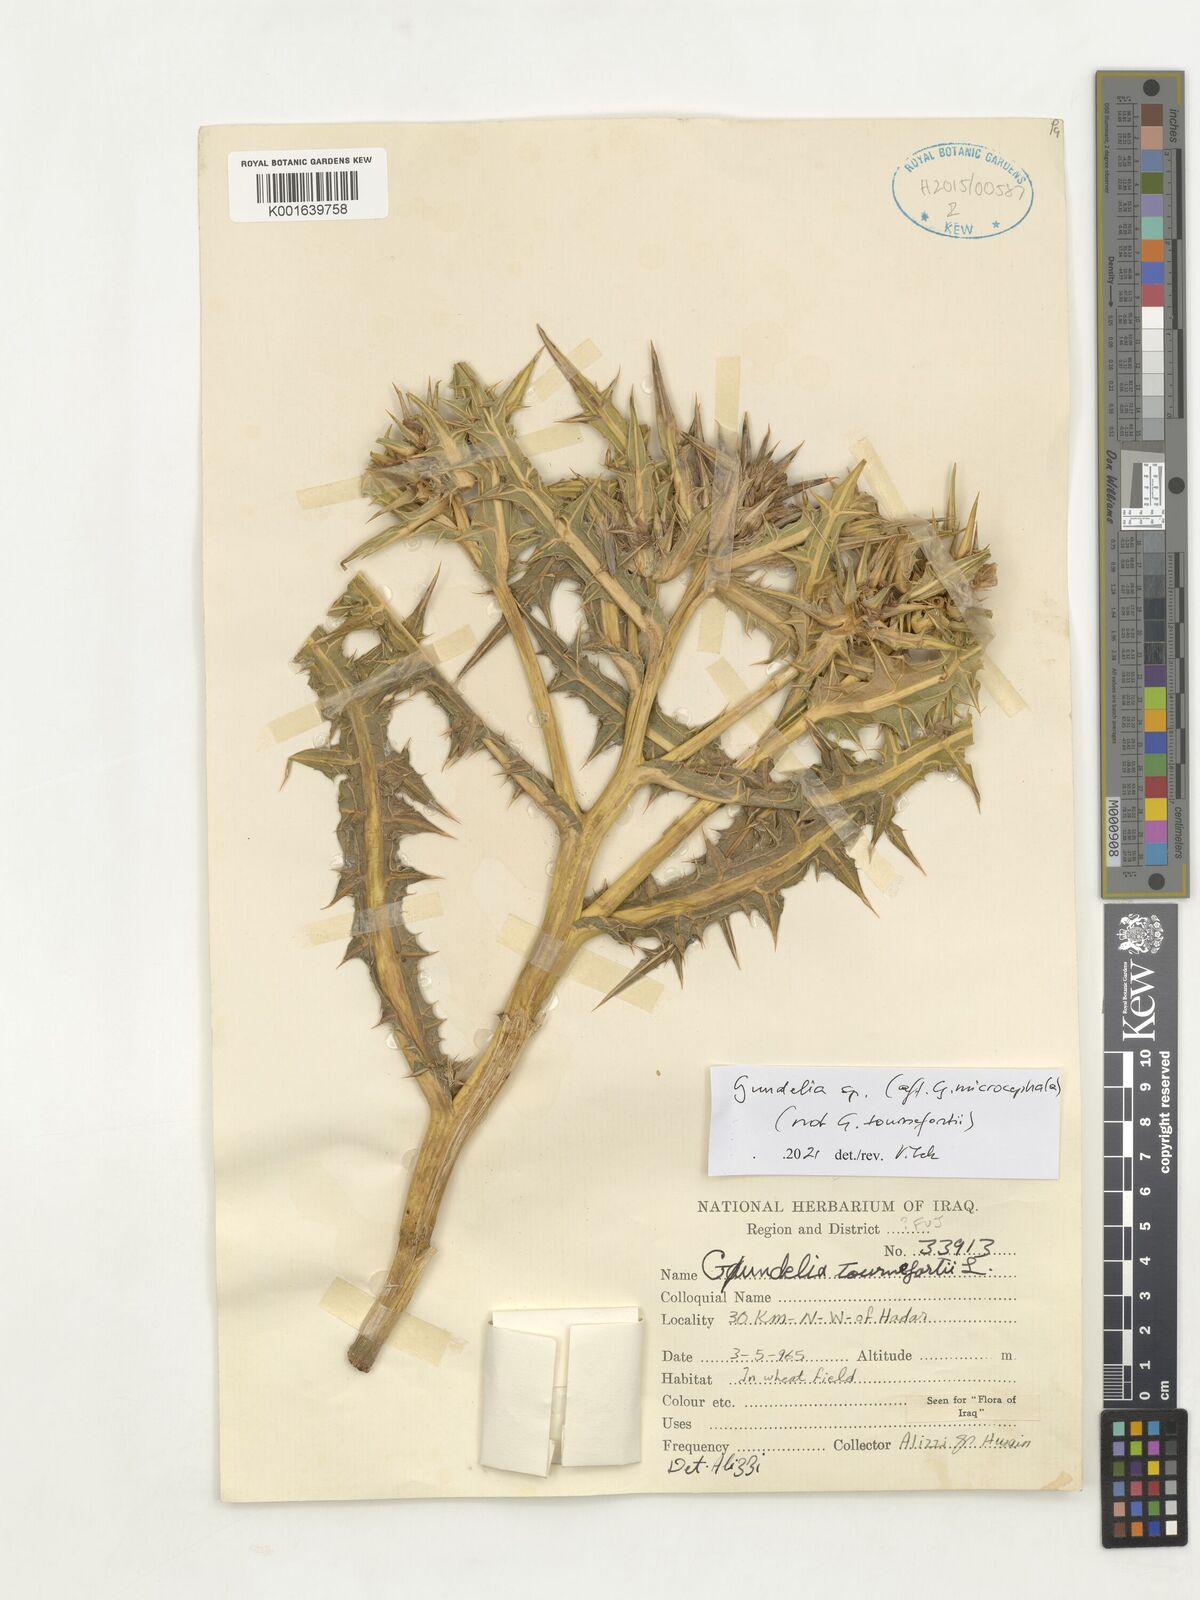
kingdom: Plantae
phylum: Tracheophyta
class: Magnoliopsida
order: Asterales
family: Asteraceae
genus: Gundelia
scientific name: Gundelia microcephala
